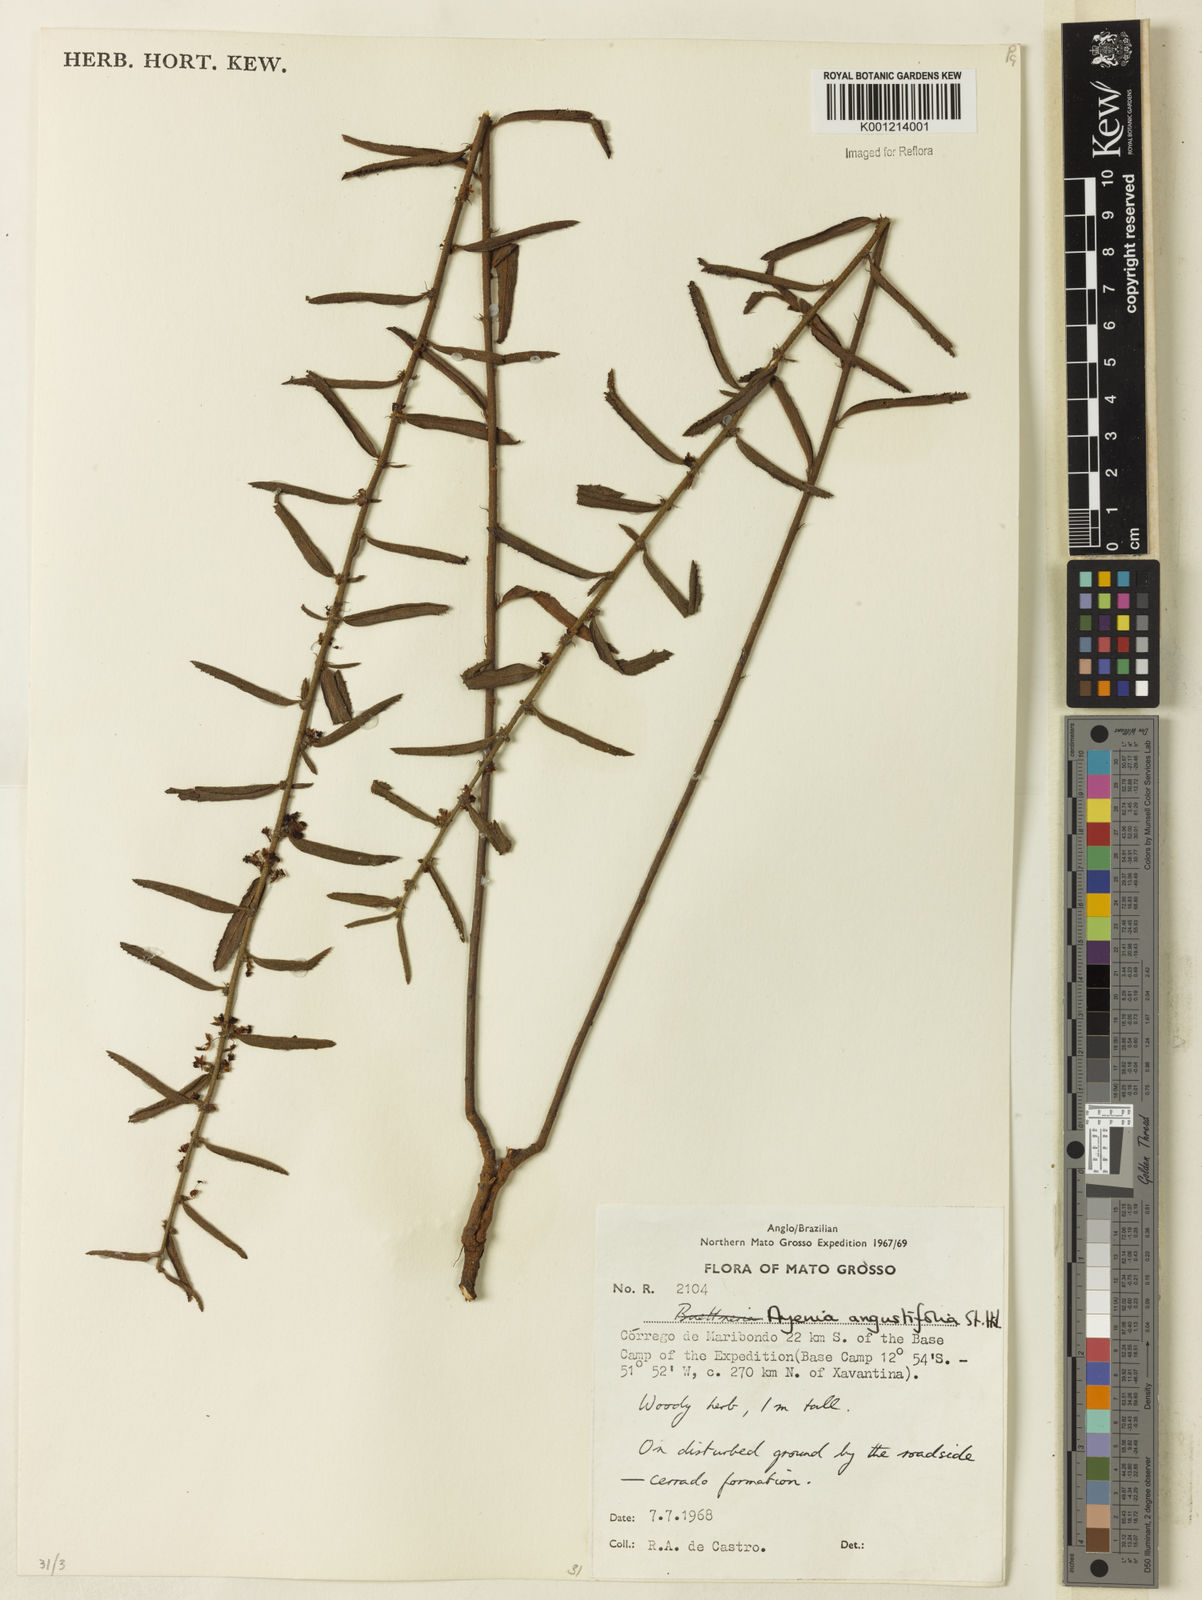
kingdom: Plantae
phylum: Tracheophyta
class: Magnoliopsida
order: Malvales
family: Malvaceae
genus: Ayenia
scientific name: Ayenia angustifolia
